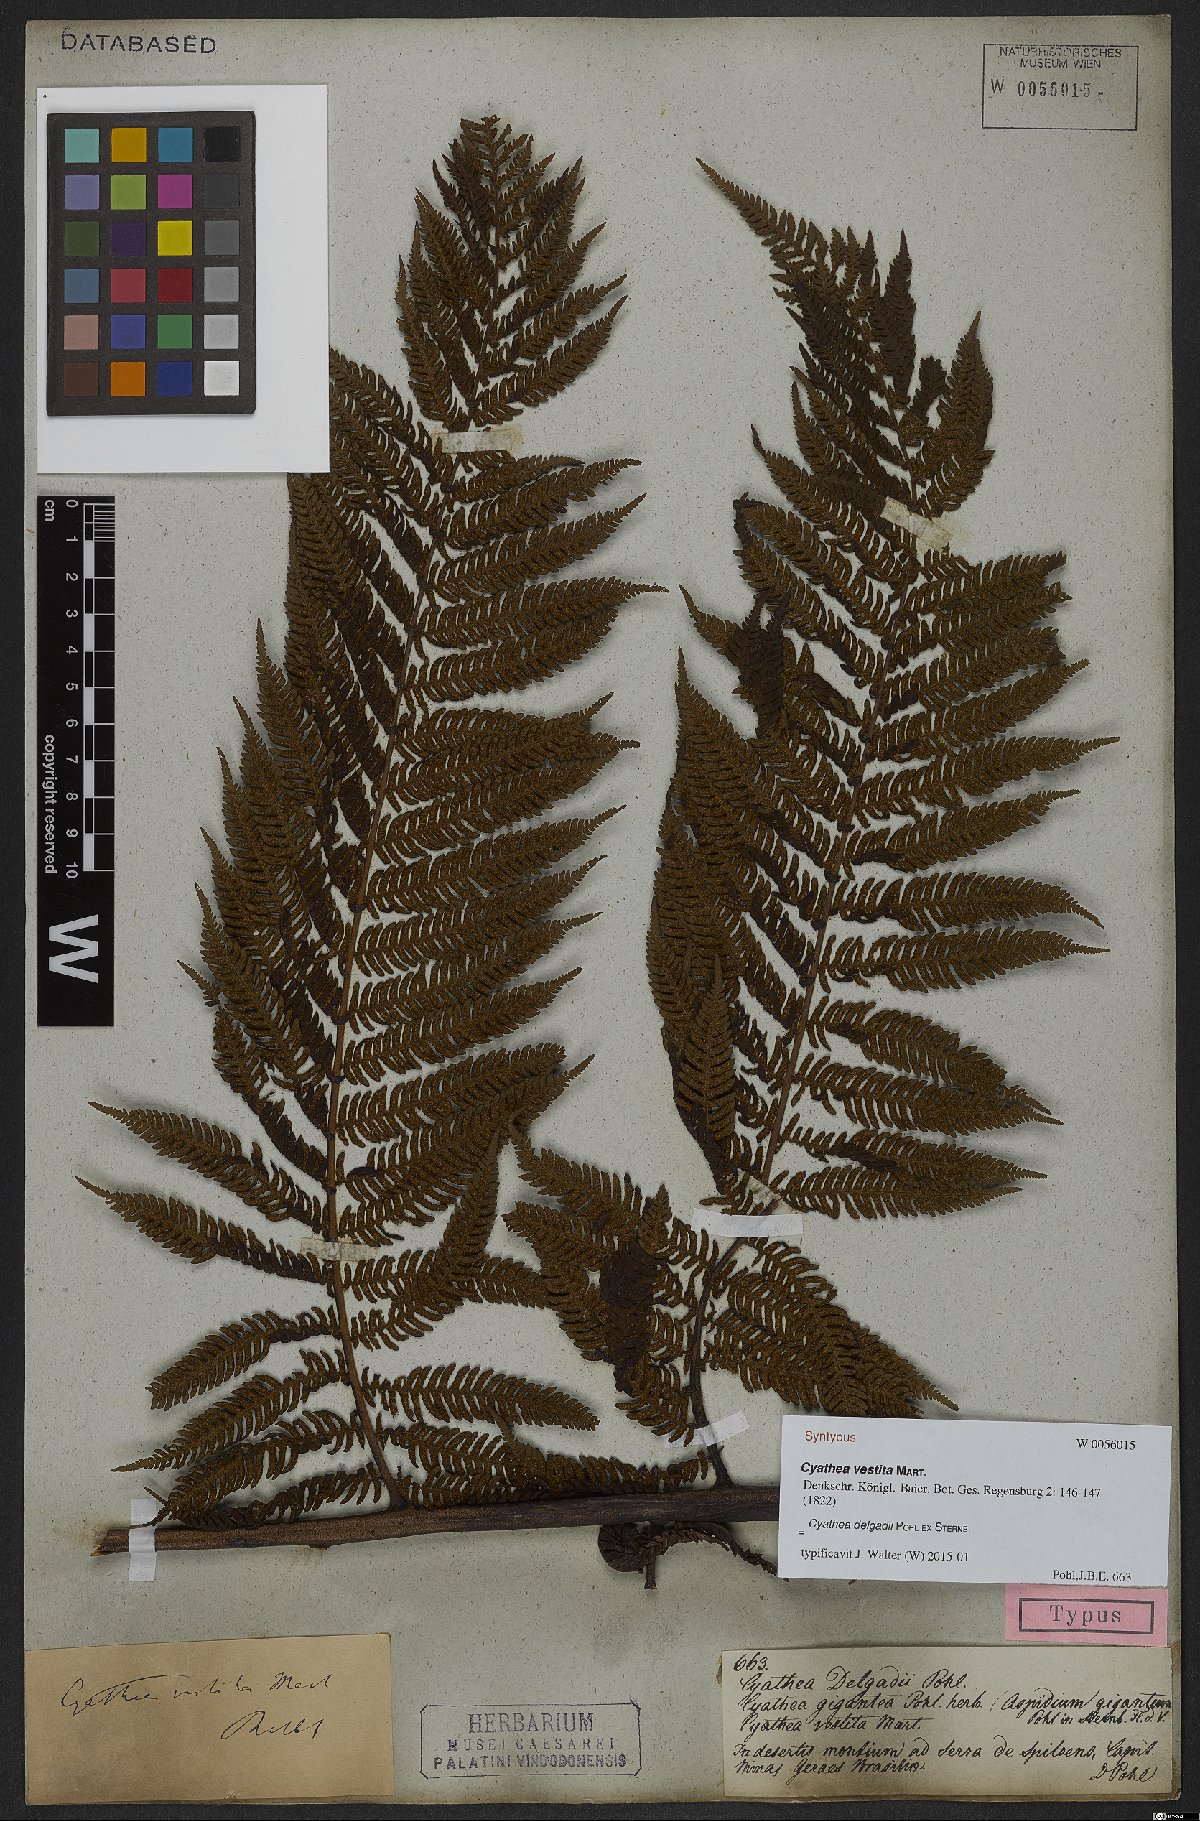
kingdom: Plantae
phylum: Tracheophyta
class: Polypodiopsida
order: Cyatheales
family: Cyatheaceae
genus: Cyathea
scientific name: Cyathea delgadii
